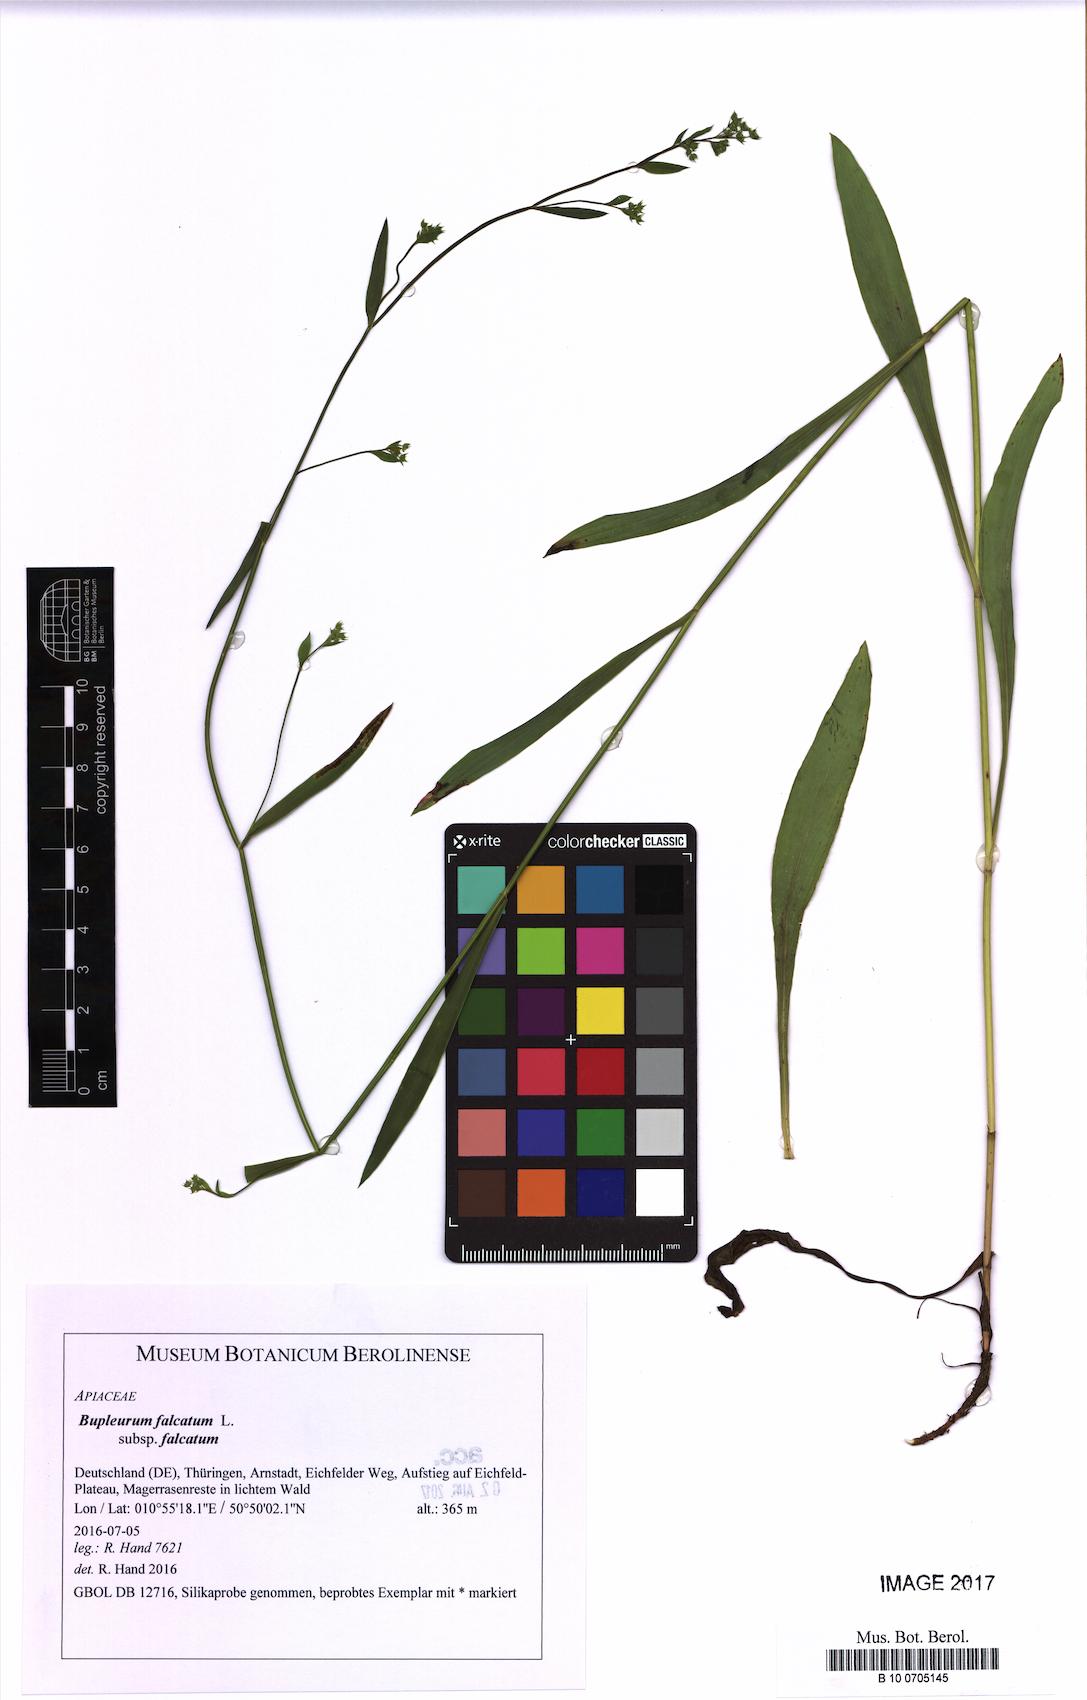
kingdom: Plantae
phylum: Tracheophyta
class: Magnoliopsida
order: Apiales
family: Apiaceae
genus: Bupleurum
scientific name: Bupleurum falcatum
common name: Sickle-leaved hare's-ear
